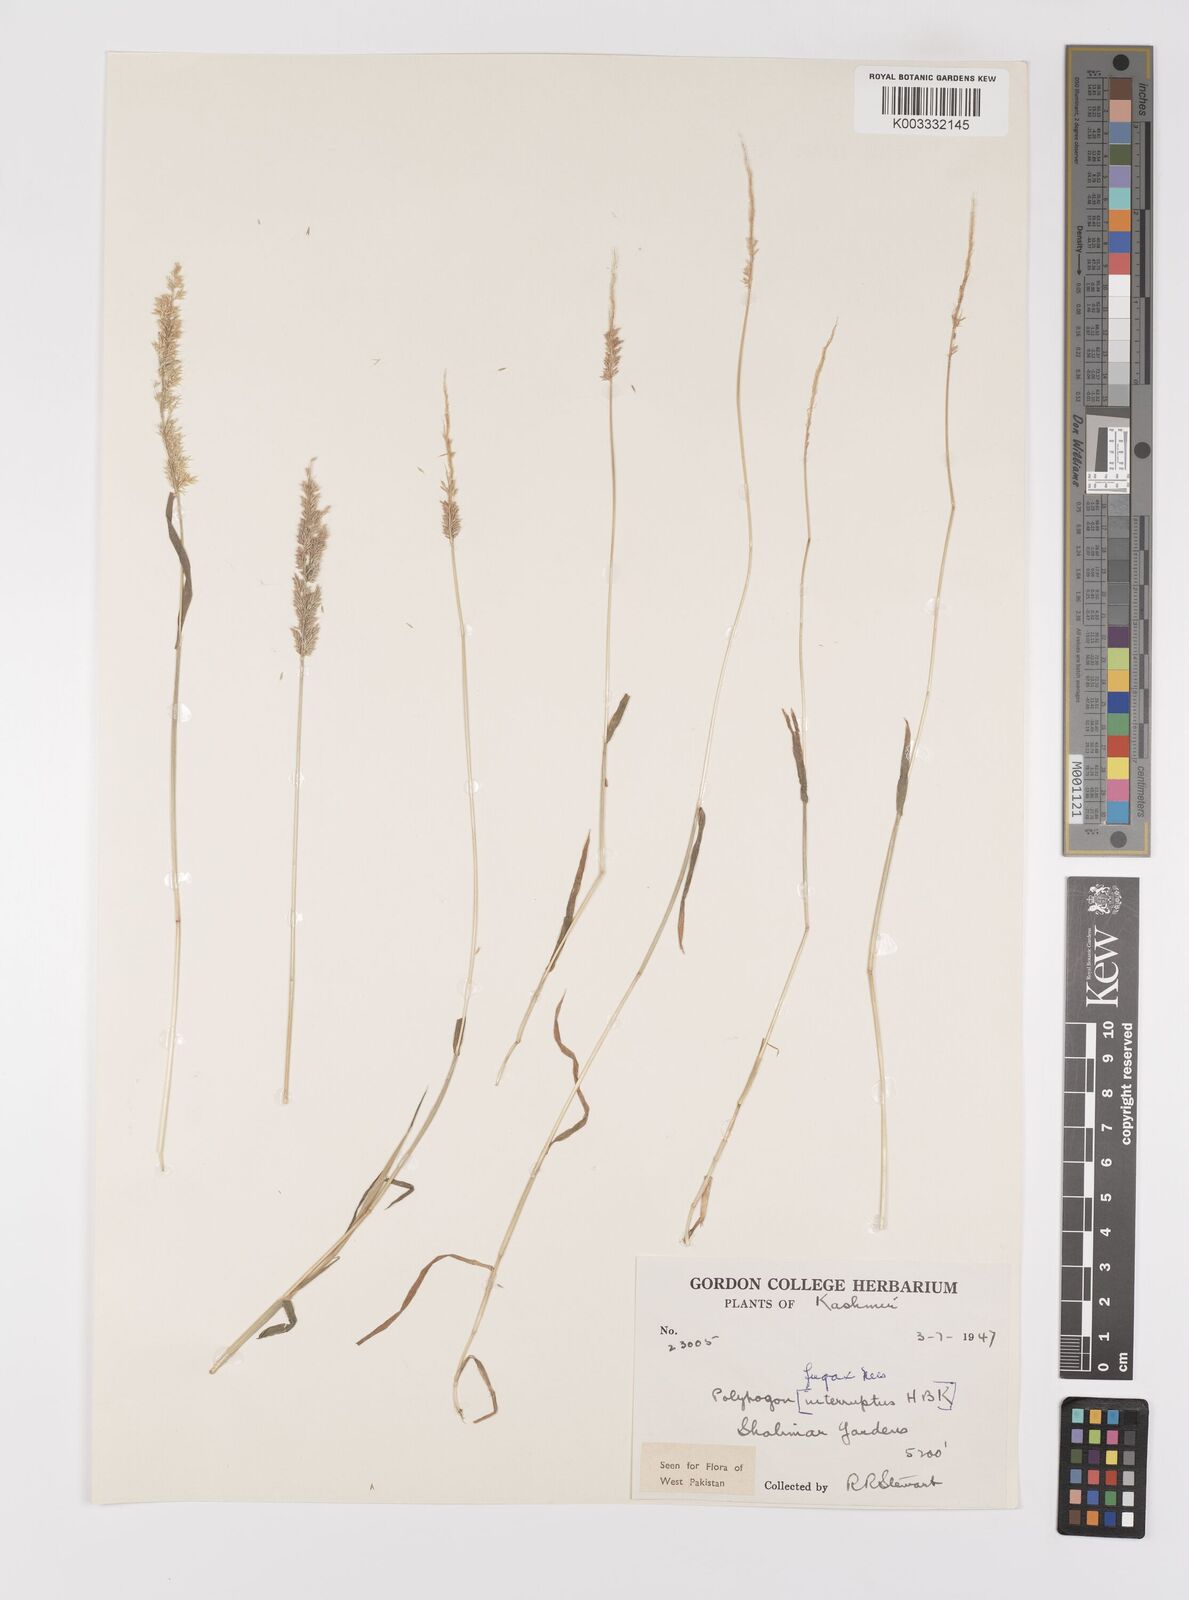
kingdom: Plantae
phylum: Tracheophyta
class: Liliopsida
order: Poales
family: Poaceae
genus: Polypogon
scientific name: Polypogon fugax
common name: Asia minor bluegrass
